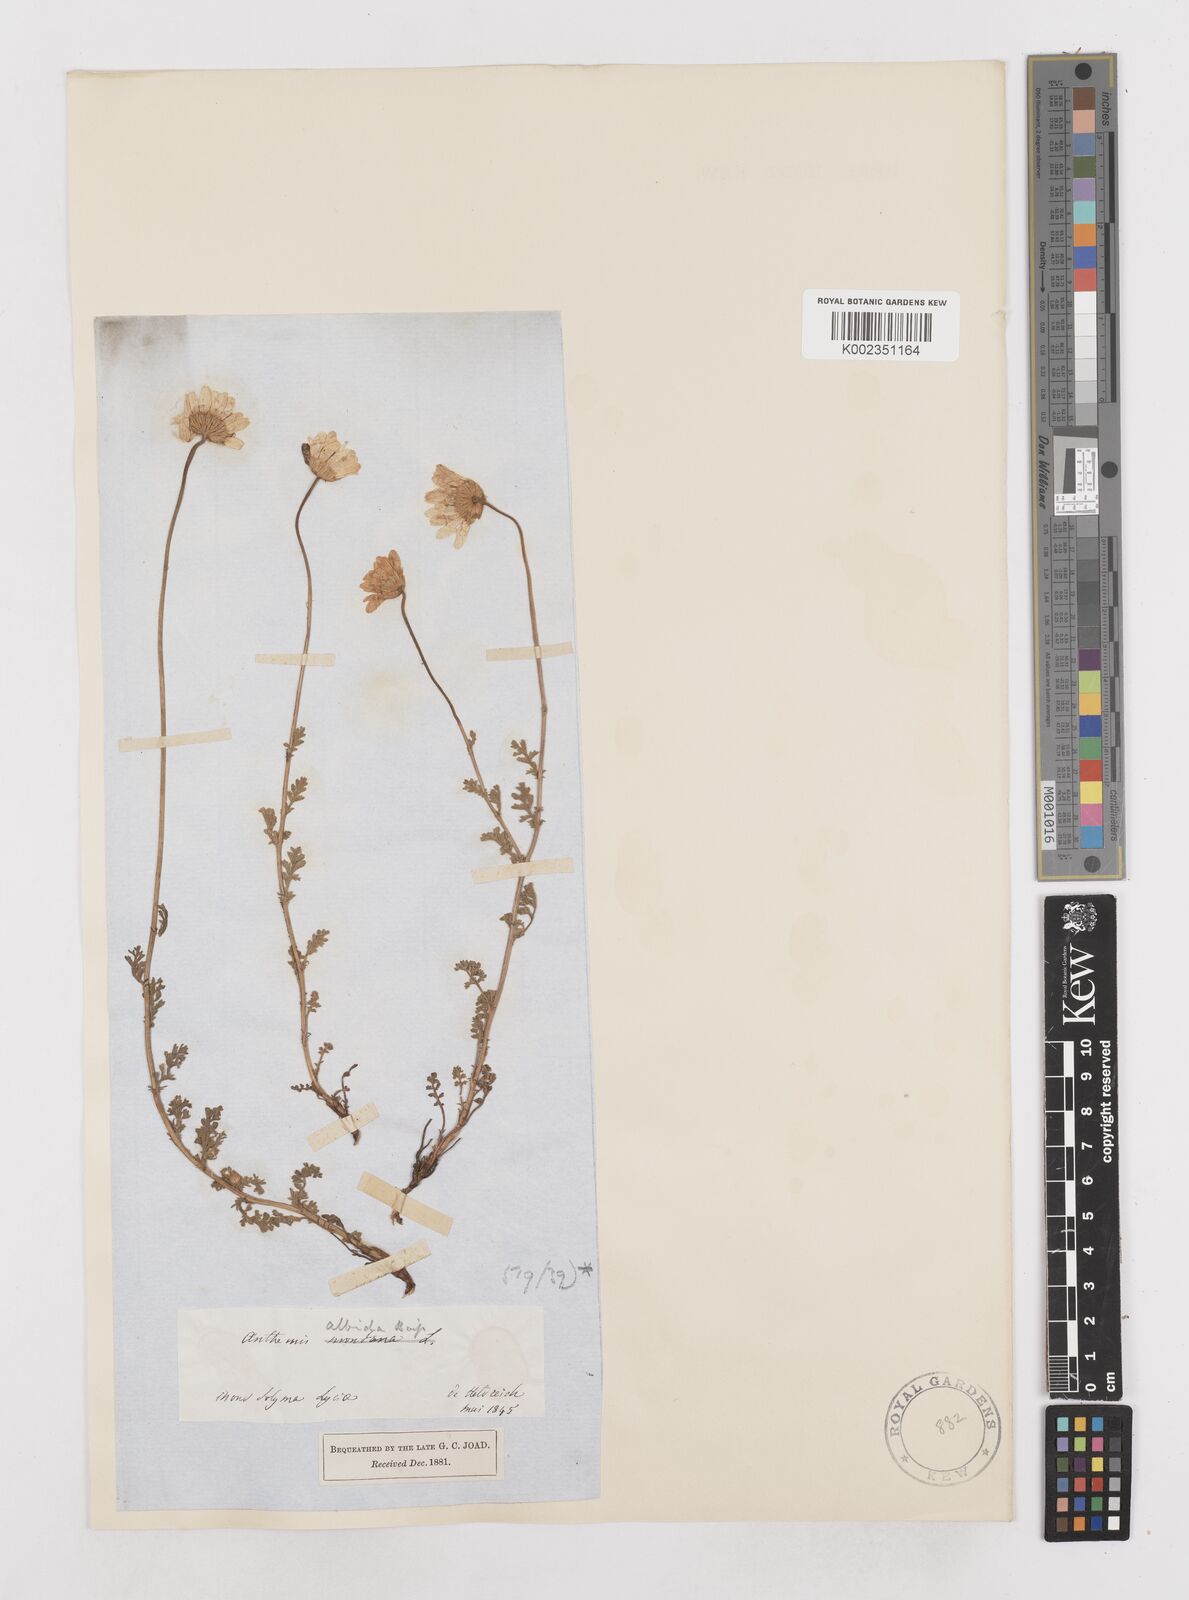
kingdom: Plantae
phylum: Tracheophyta
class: Magnoliopsida
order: Asterales
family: Asteraceae
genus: Anthemis
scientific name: Anthemis cretica
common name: Mountain dog-daisy
